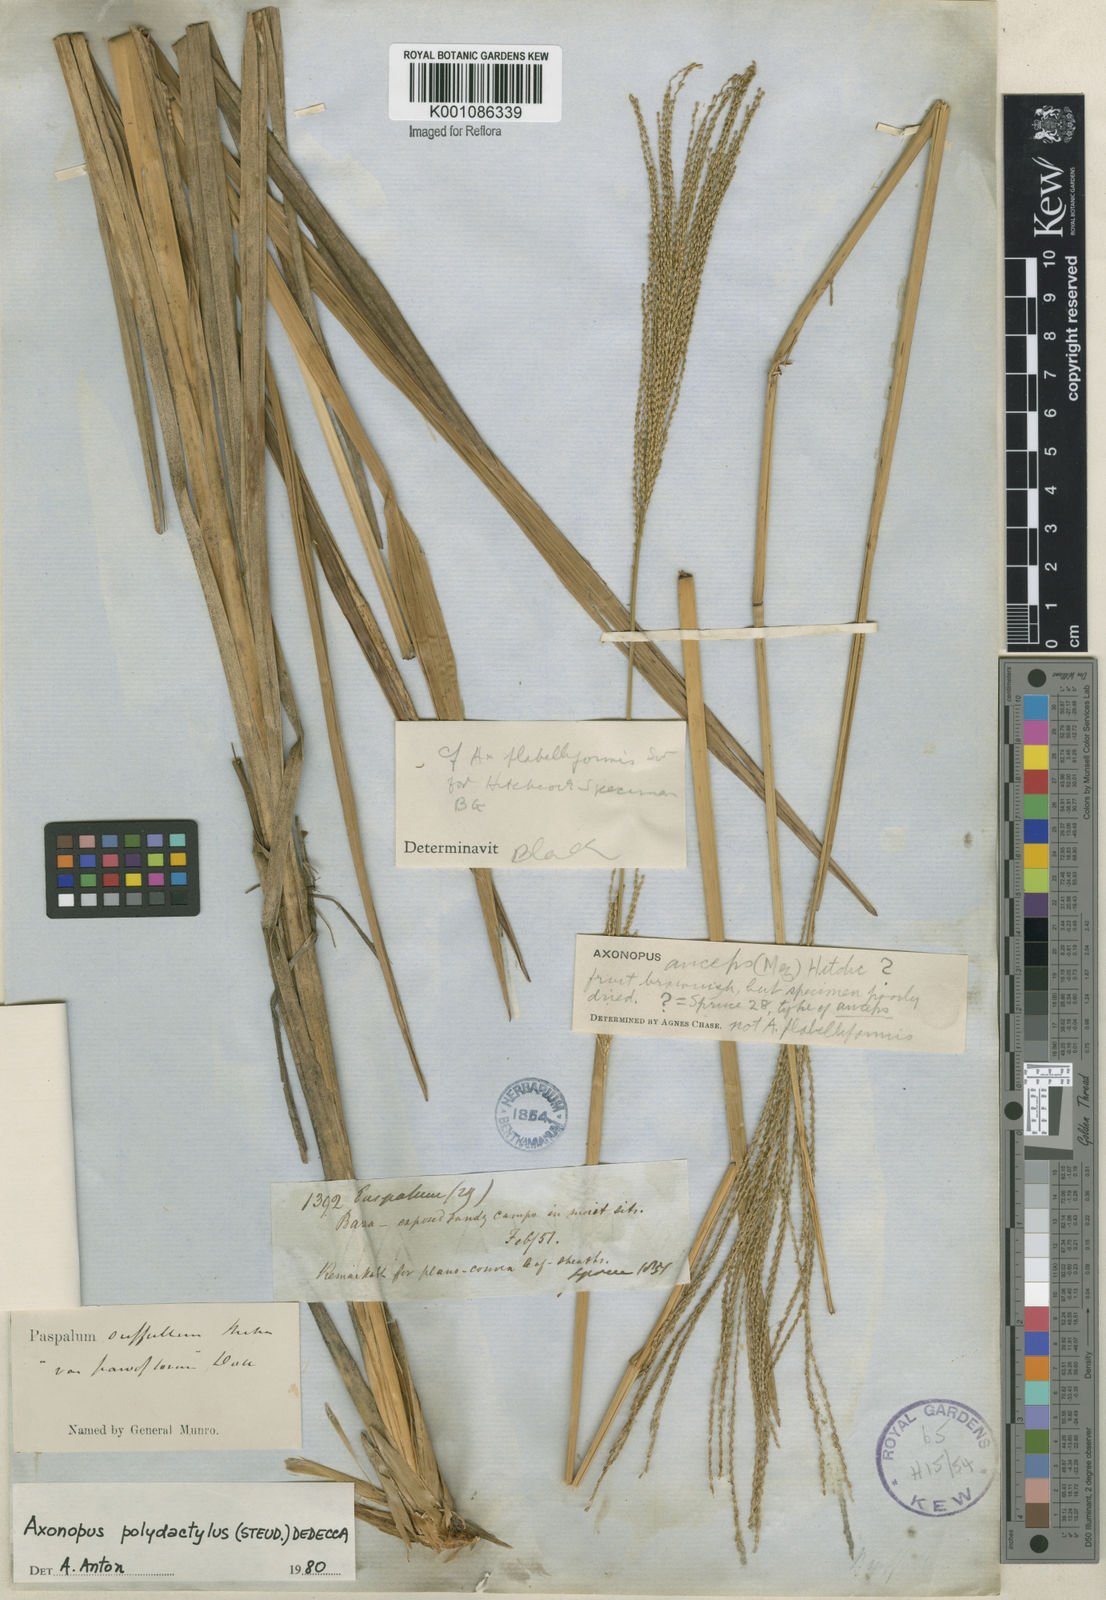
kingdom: Plantae
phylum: Tracheophyta
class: Liliopsida
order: Poales
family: Poaceae
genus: Axonopus
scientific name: Axonopus polydactylus
